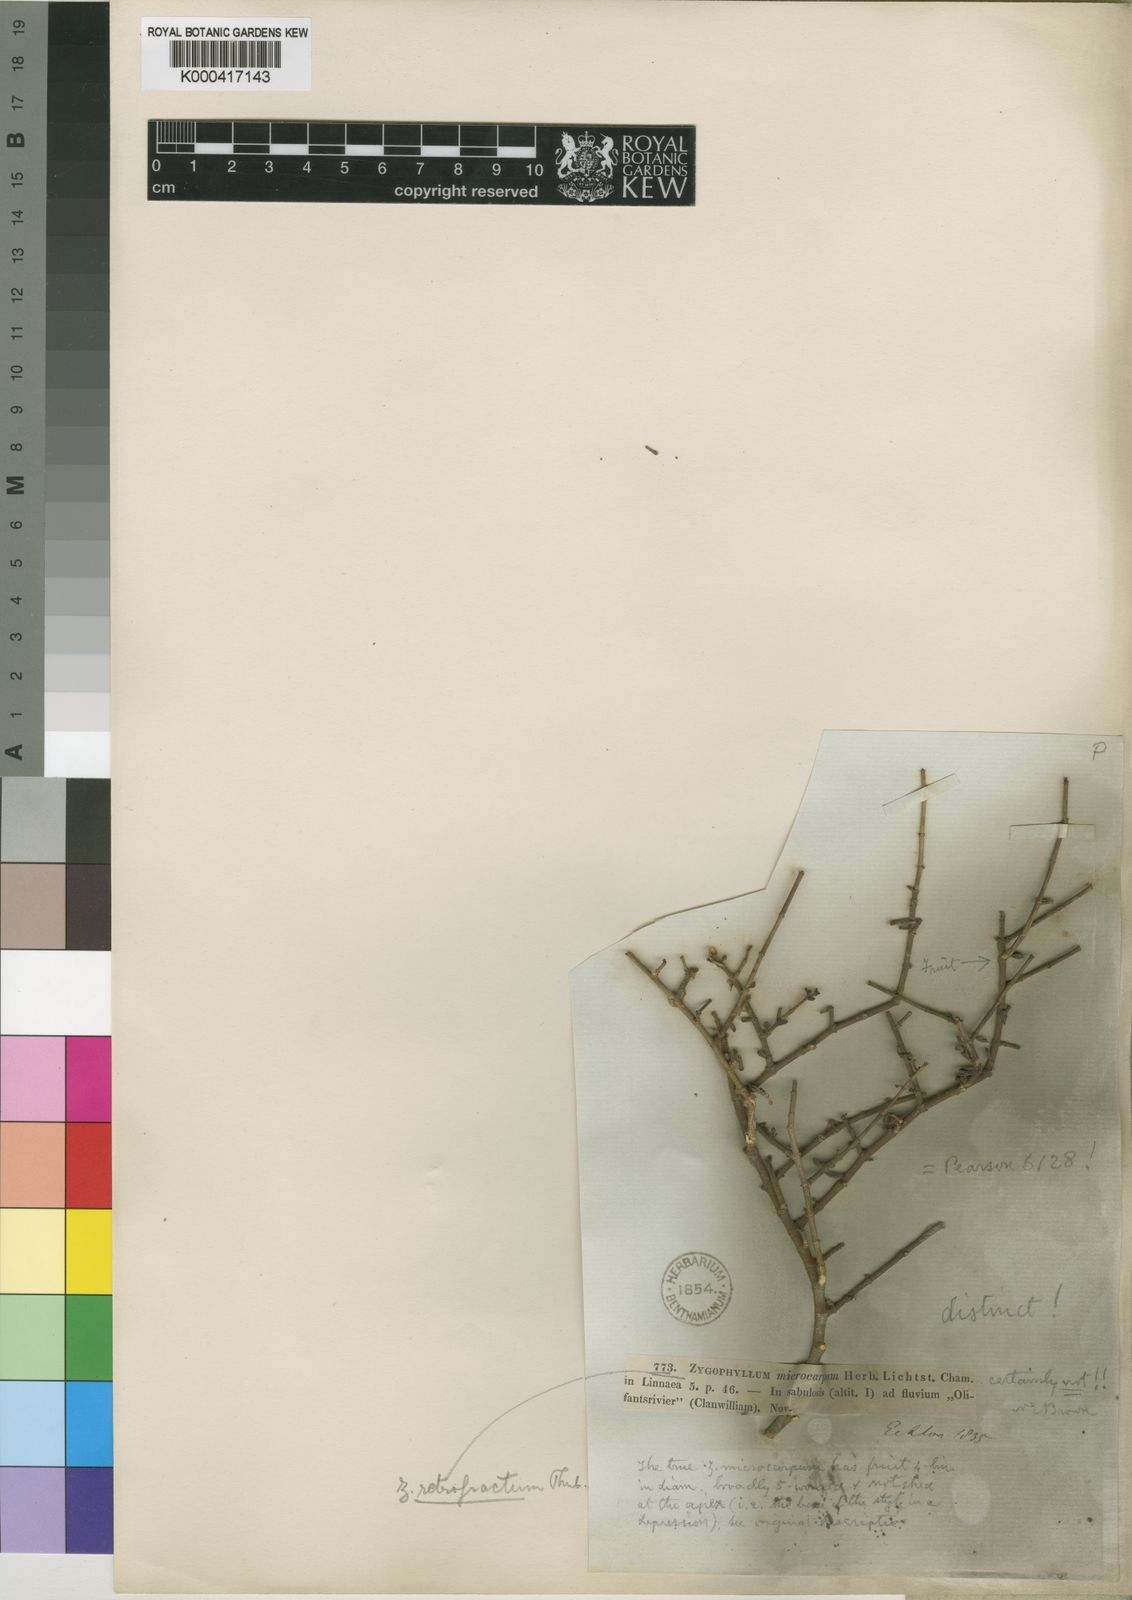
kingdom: Plantae
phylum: Tracheophyta
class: Magnoliopsida
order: Zygophyllales
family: Zygophyllaceae
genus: Tetraena
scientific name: Tetraena retrofracta
